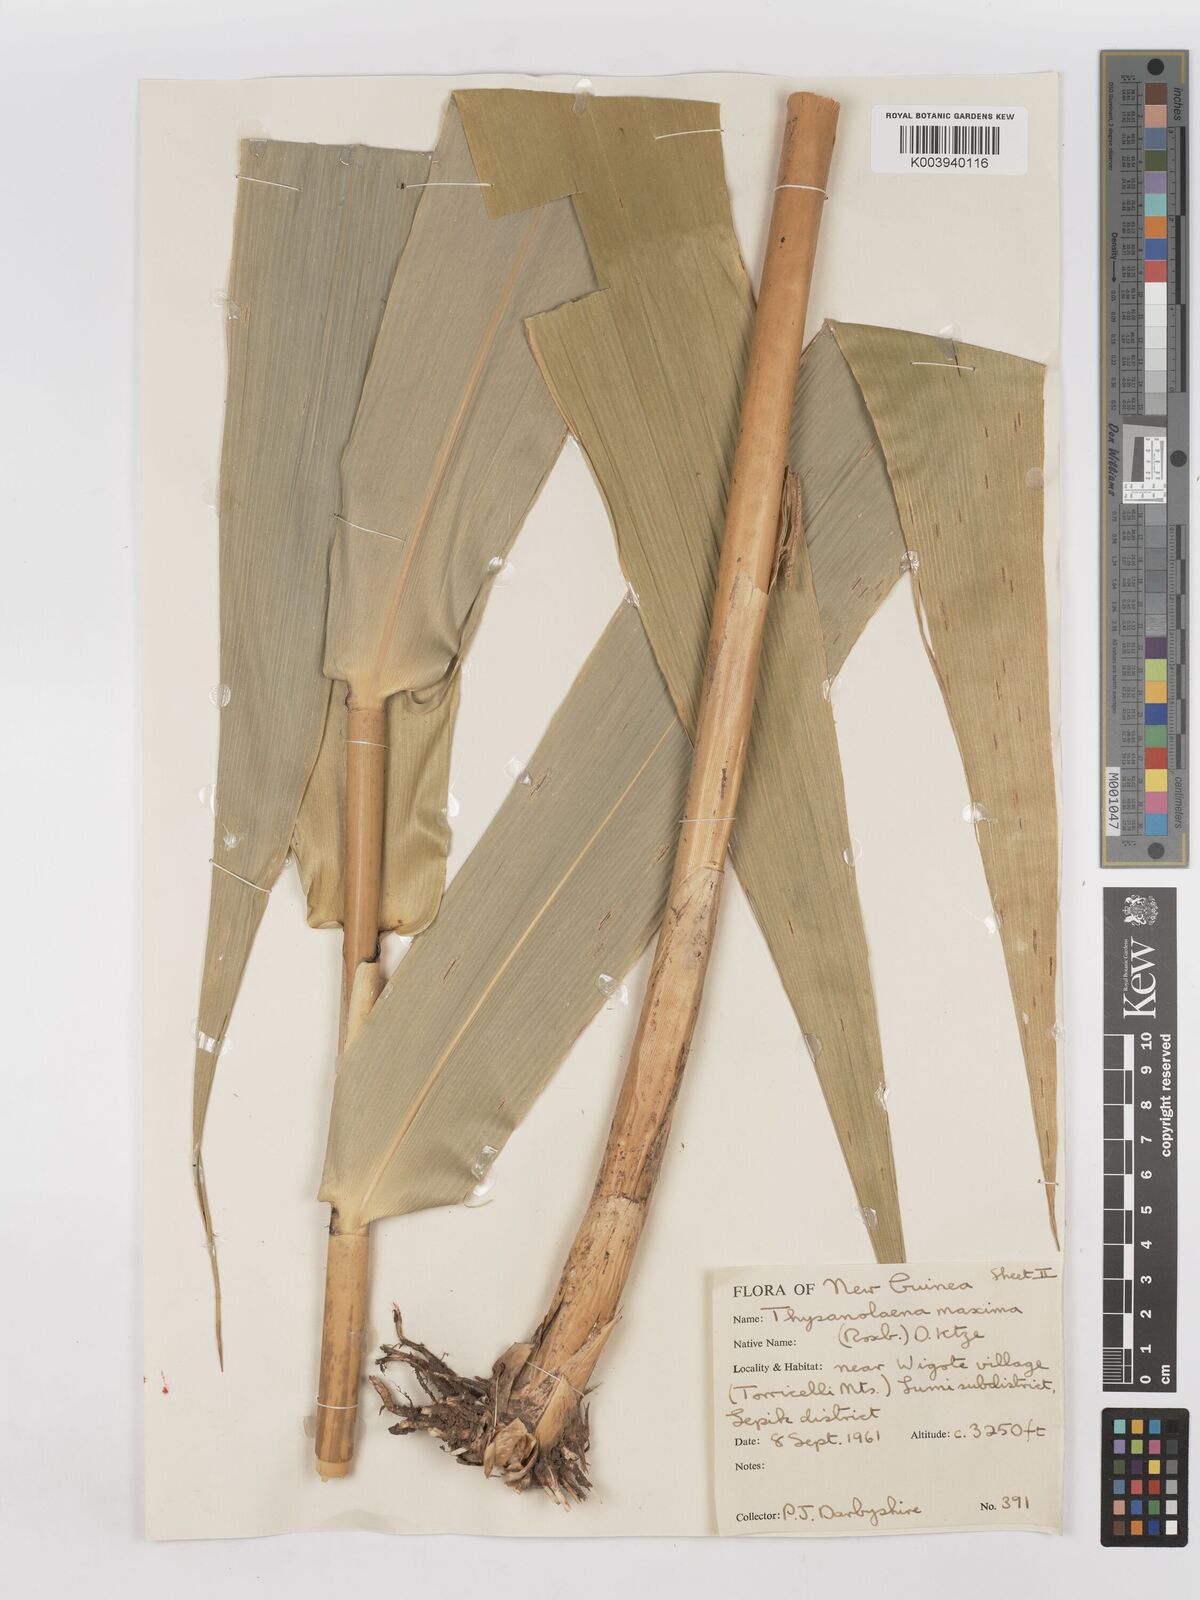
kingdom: Plantae
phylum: Tracheophyta
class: Liliopsida
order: Poales
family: Poaceae
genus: Thysanolaena
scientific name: Thysanolaena latifolia
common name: Tiger grass
